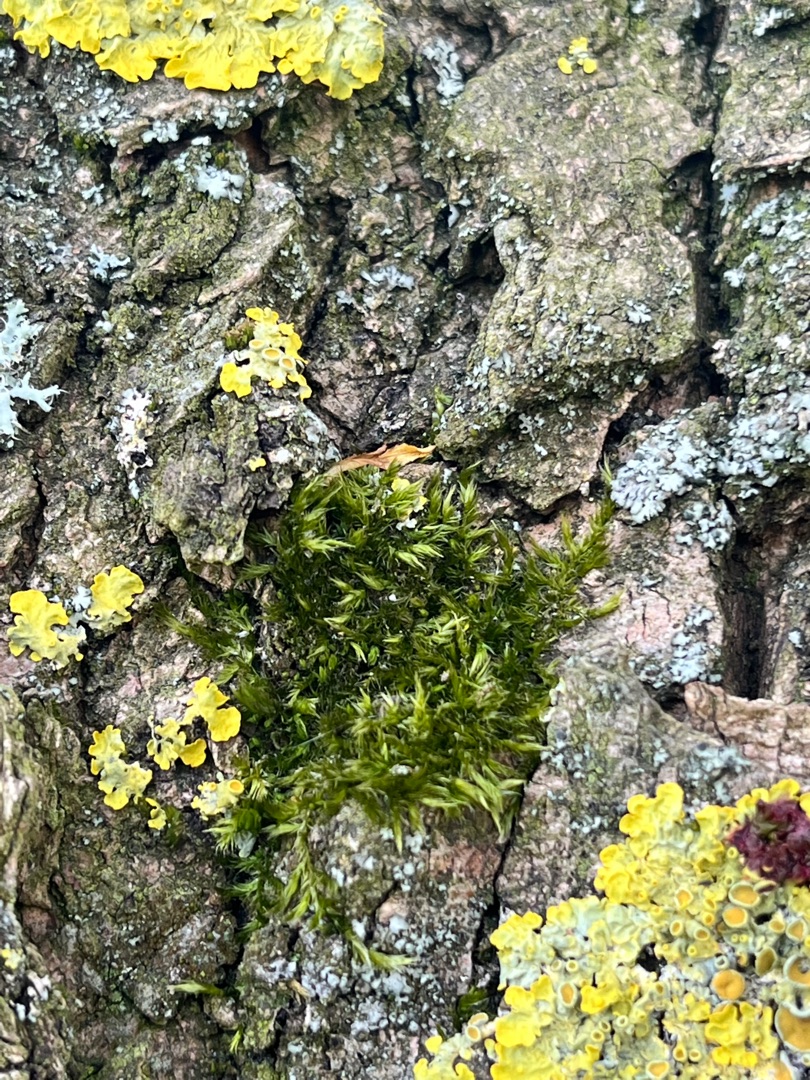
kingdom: Plantae
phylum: Bryophyta
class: Bryopsida
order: Hypnales
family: Hypnaceae
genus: Hypnum
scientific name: Hypnum cupressiforme
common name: Almindelig cypresmos
